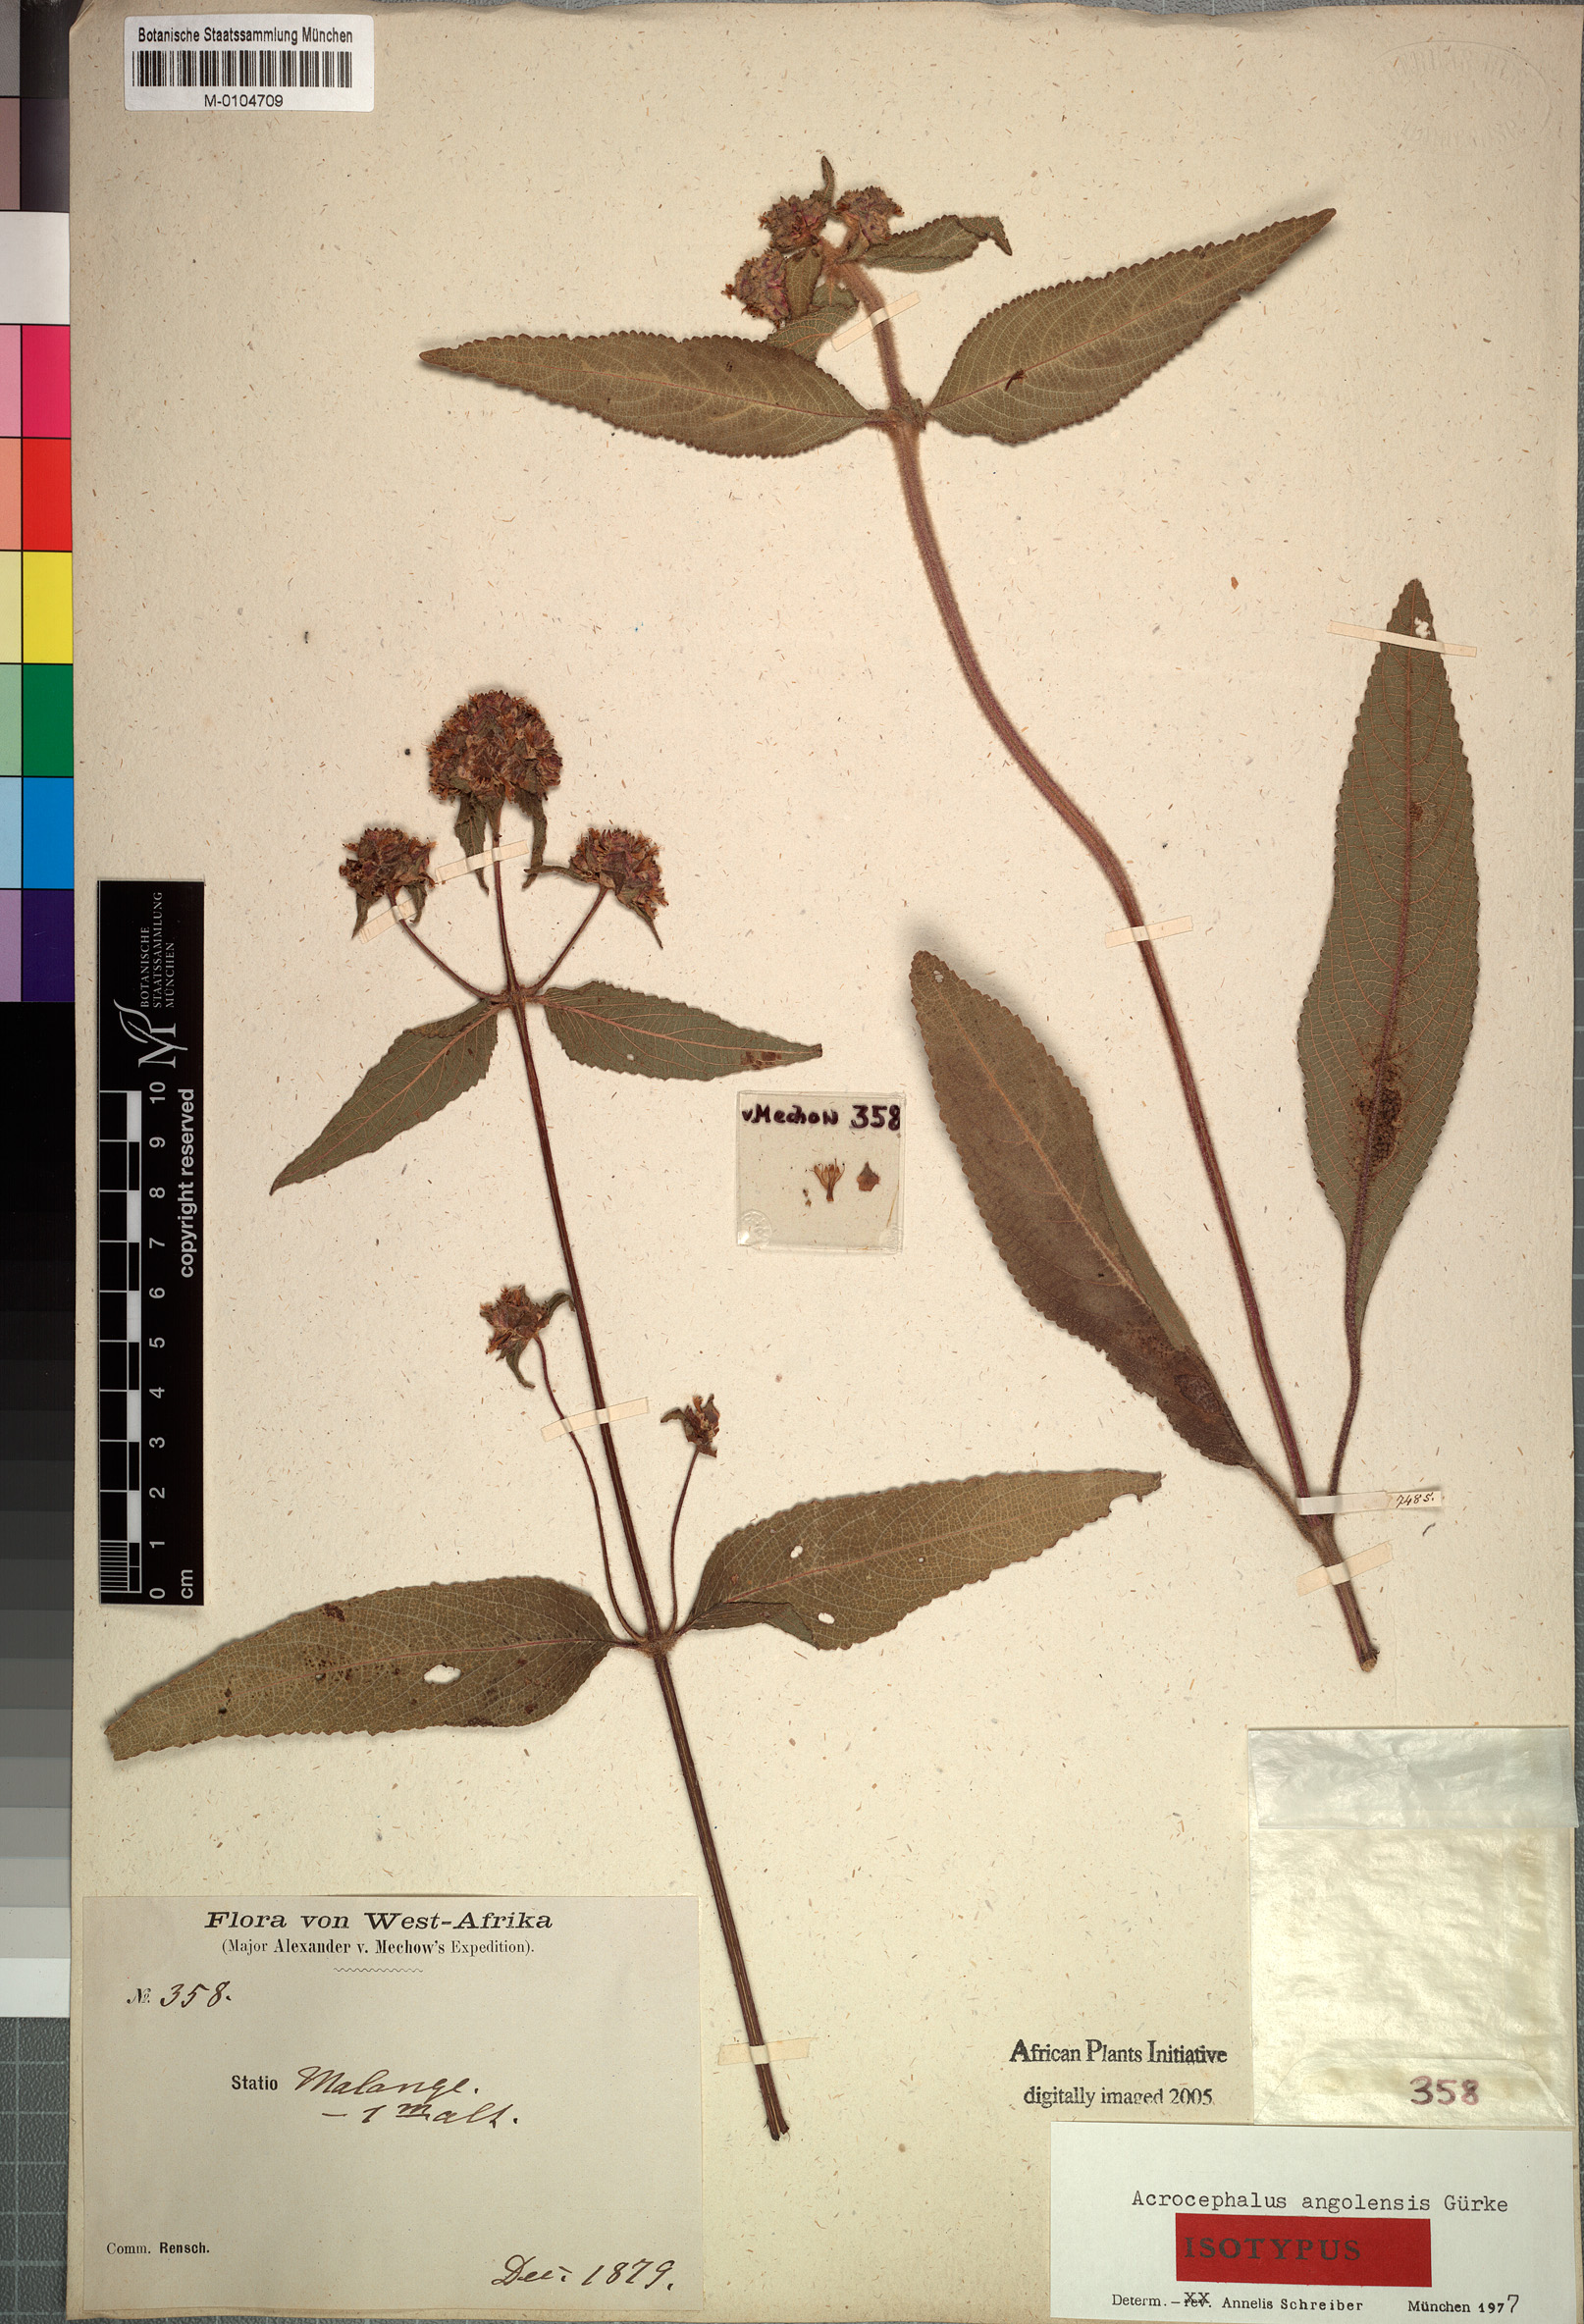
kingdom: Plantae
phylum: Tracheophyta
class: Magnoliopsida
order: Lamiales
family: Lamiaceae
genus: Haumaniastrum
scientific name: Haumaniastrum villosum
